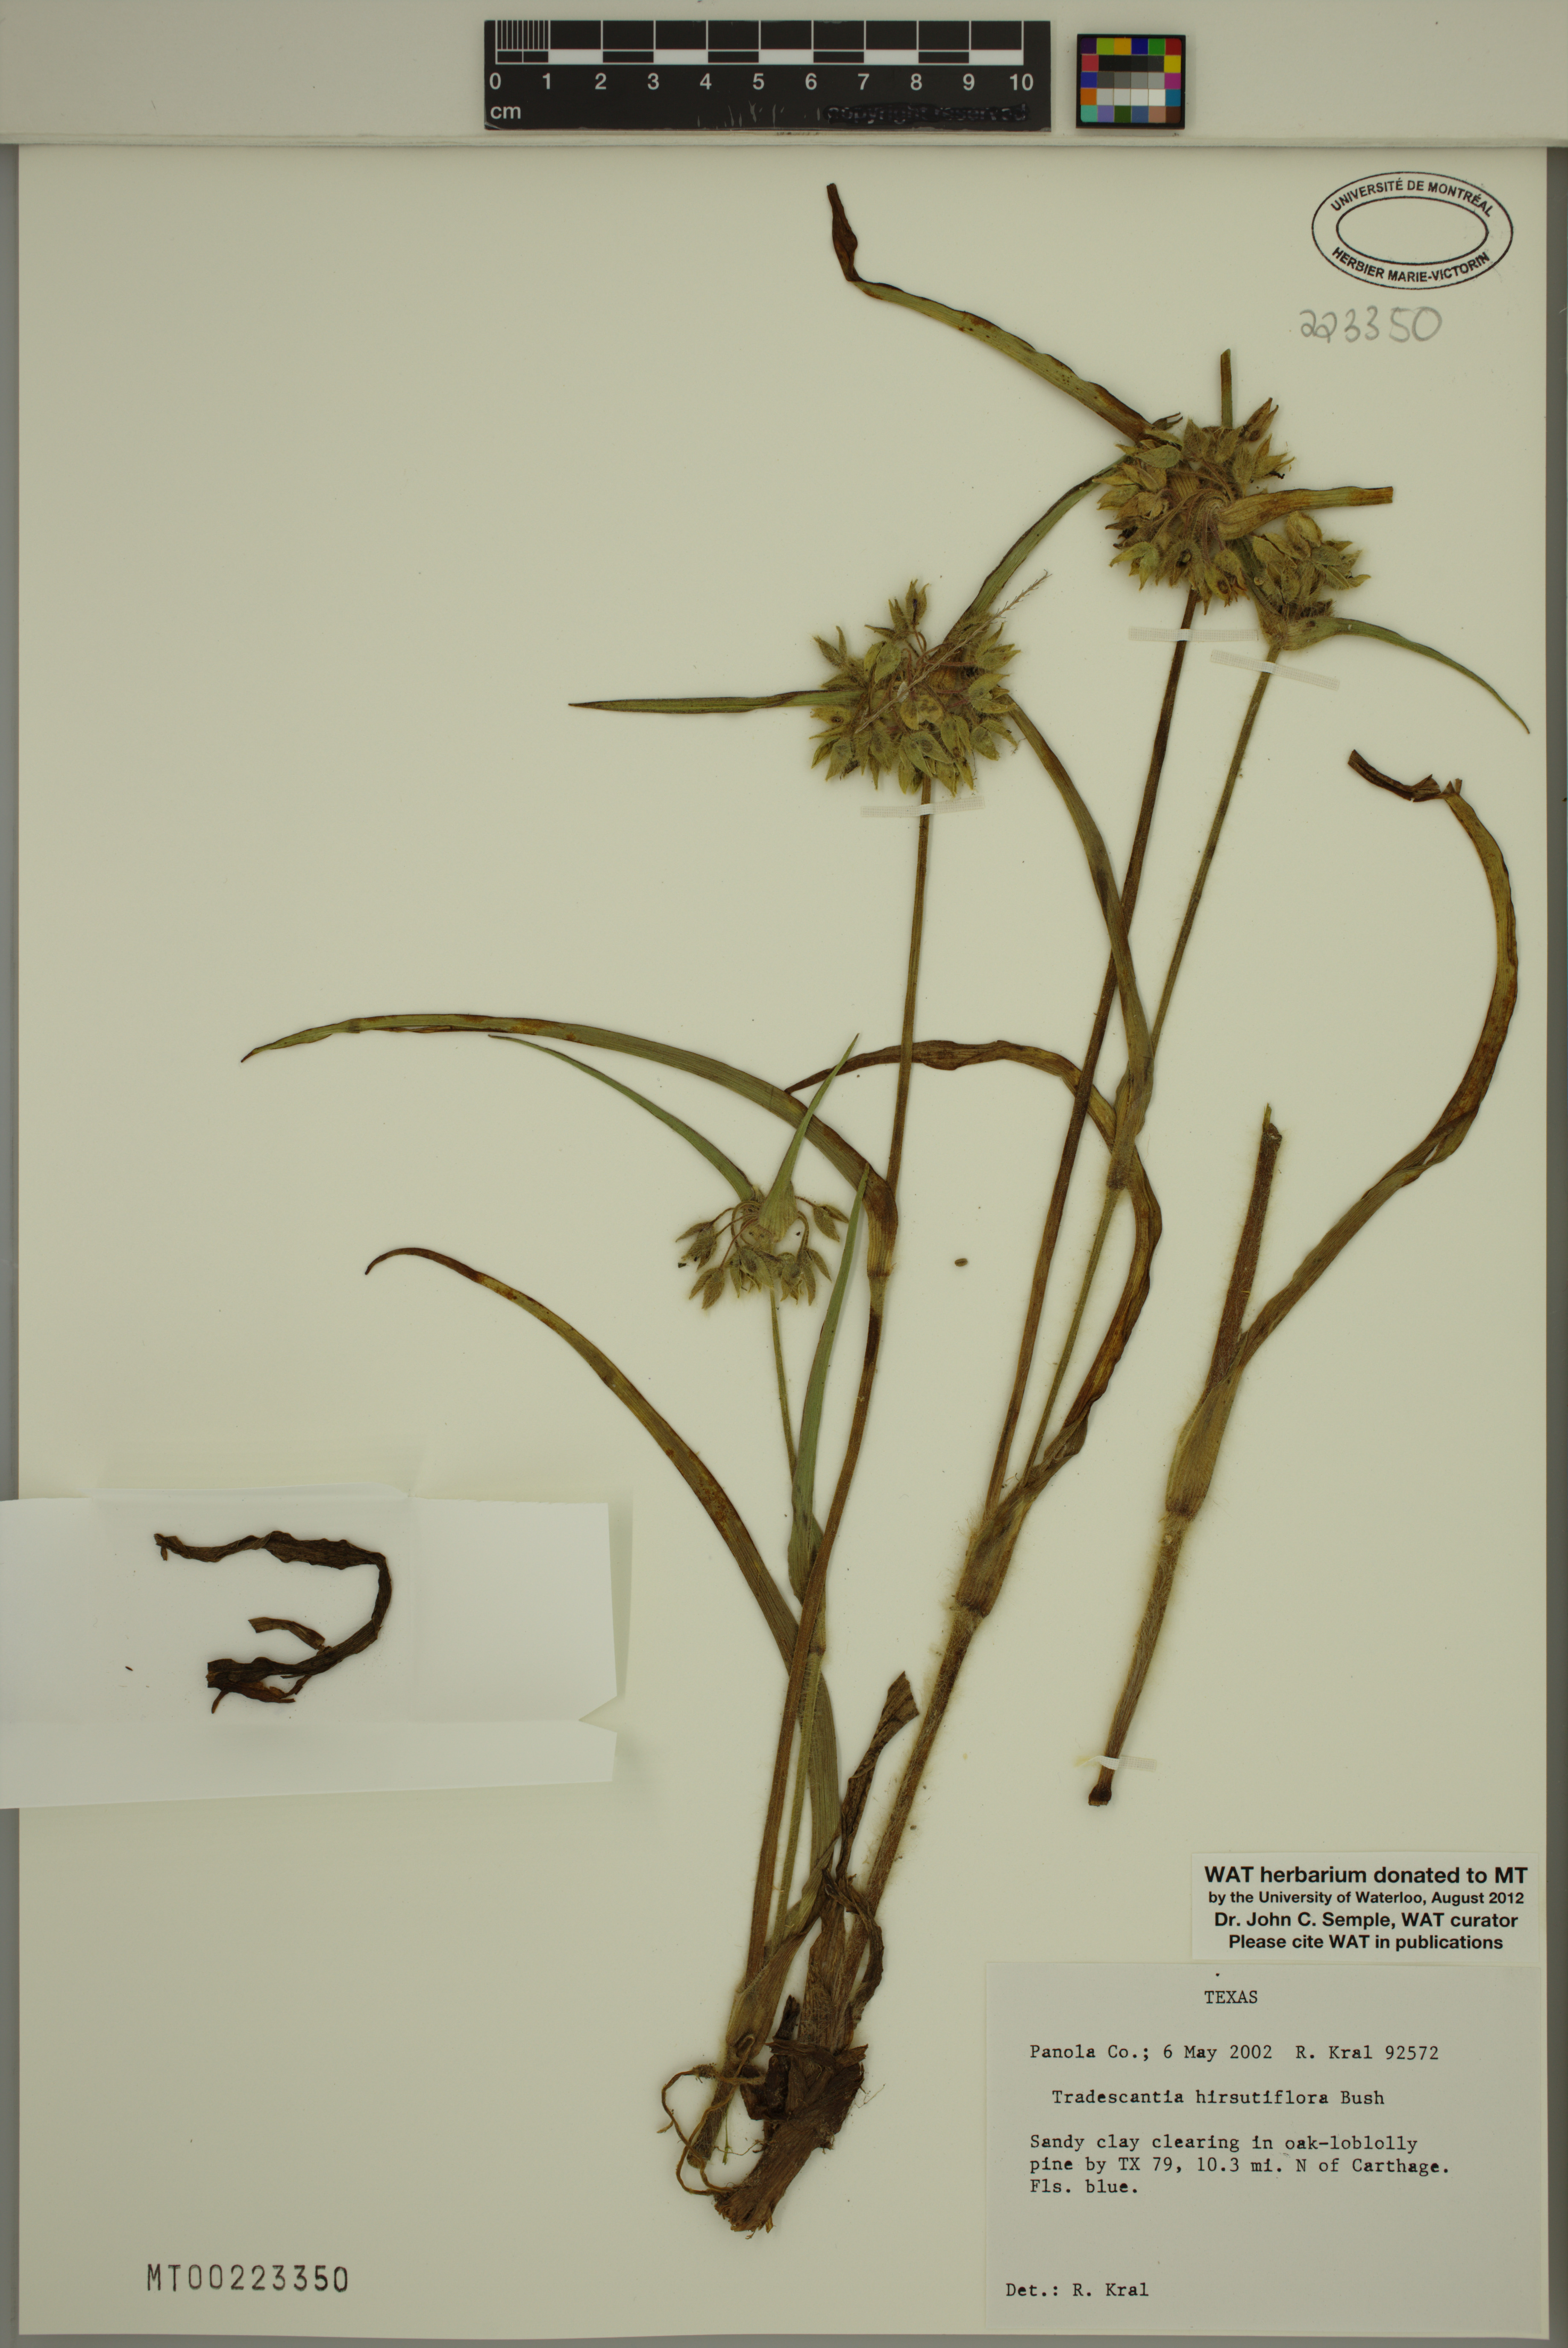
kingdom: Plantae
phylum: Tracheophyta
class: Liliopsida
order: Commelinales
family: Commelinaceae
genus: Tradescantia
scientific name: Tradescantia hirsutiflora
